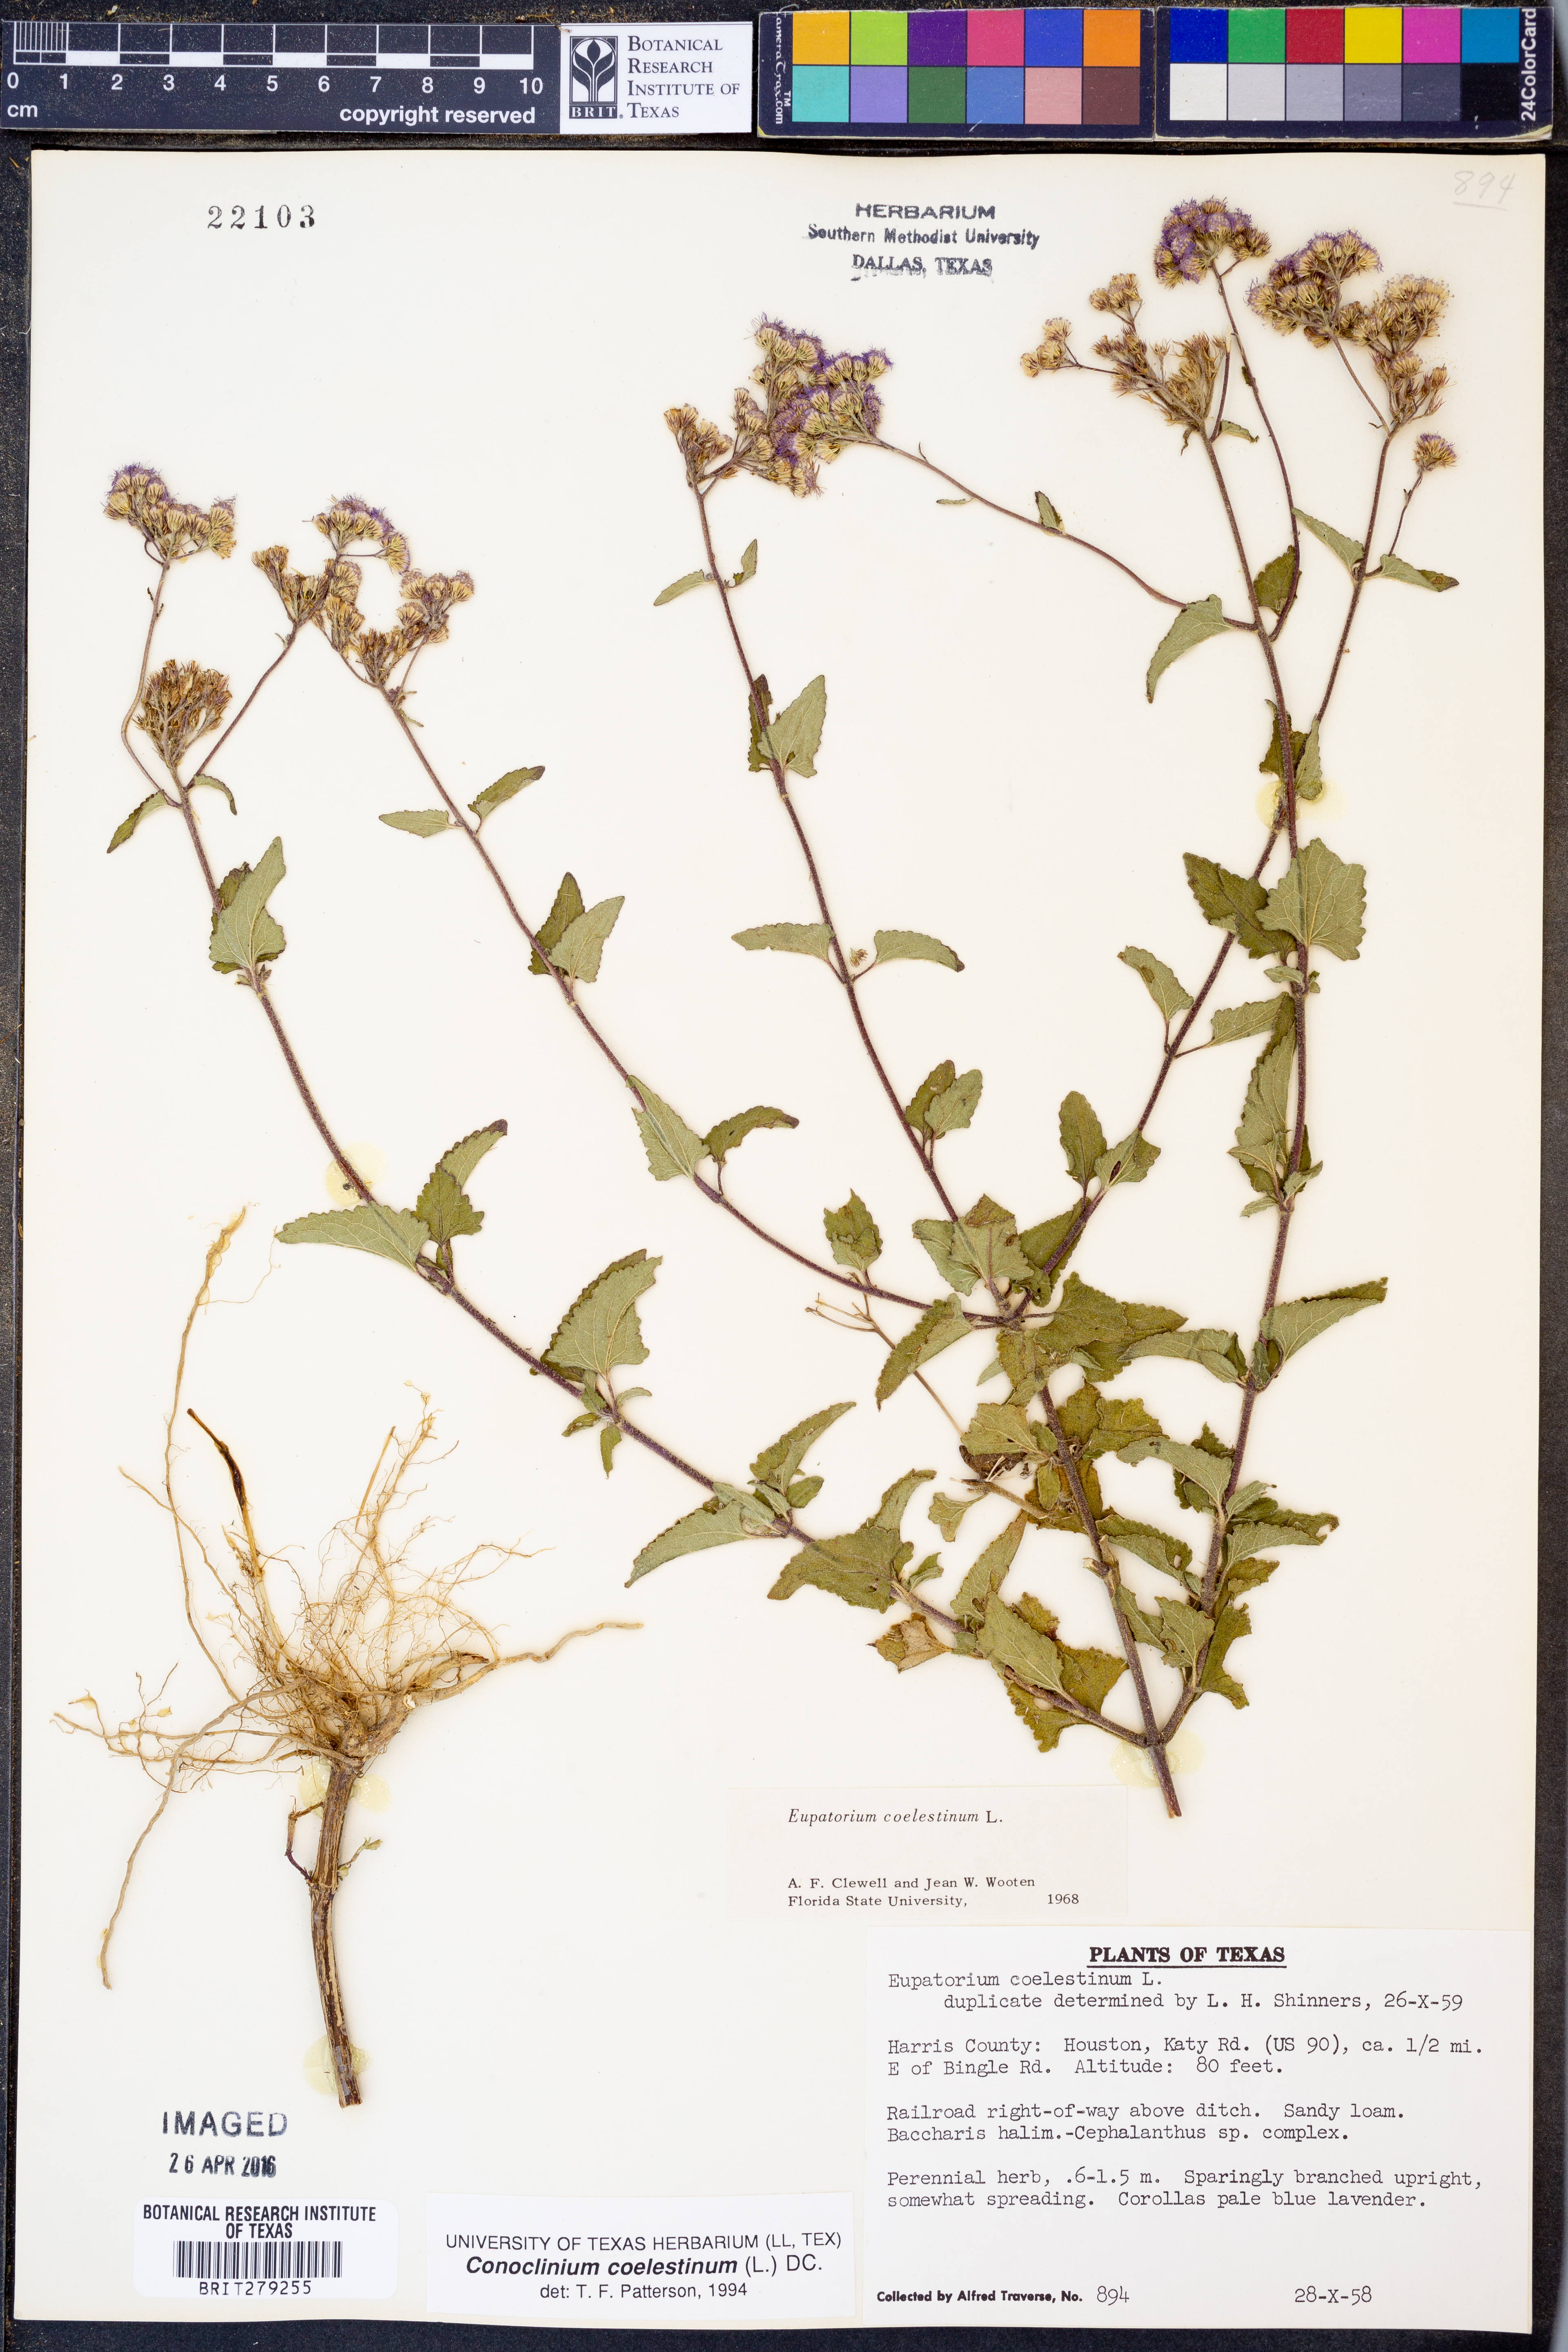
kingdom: Plantae
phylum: Tracheophyta
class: Magnoliopsida
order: Asterales
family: Asteraceae
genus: Conoclinium
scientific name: Conoclinium coelestinum
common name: Blue mistflower
